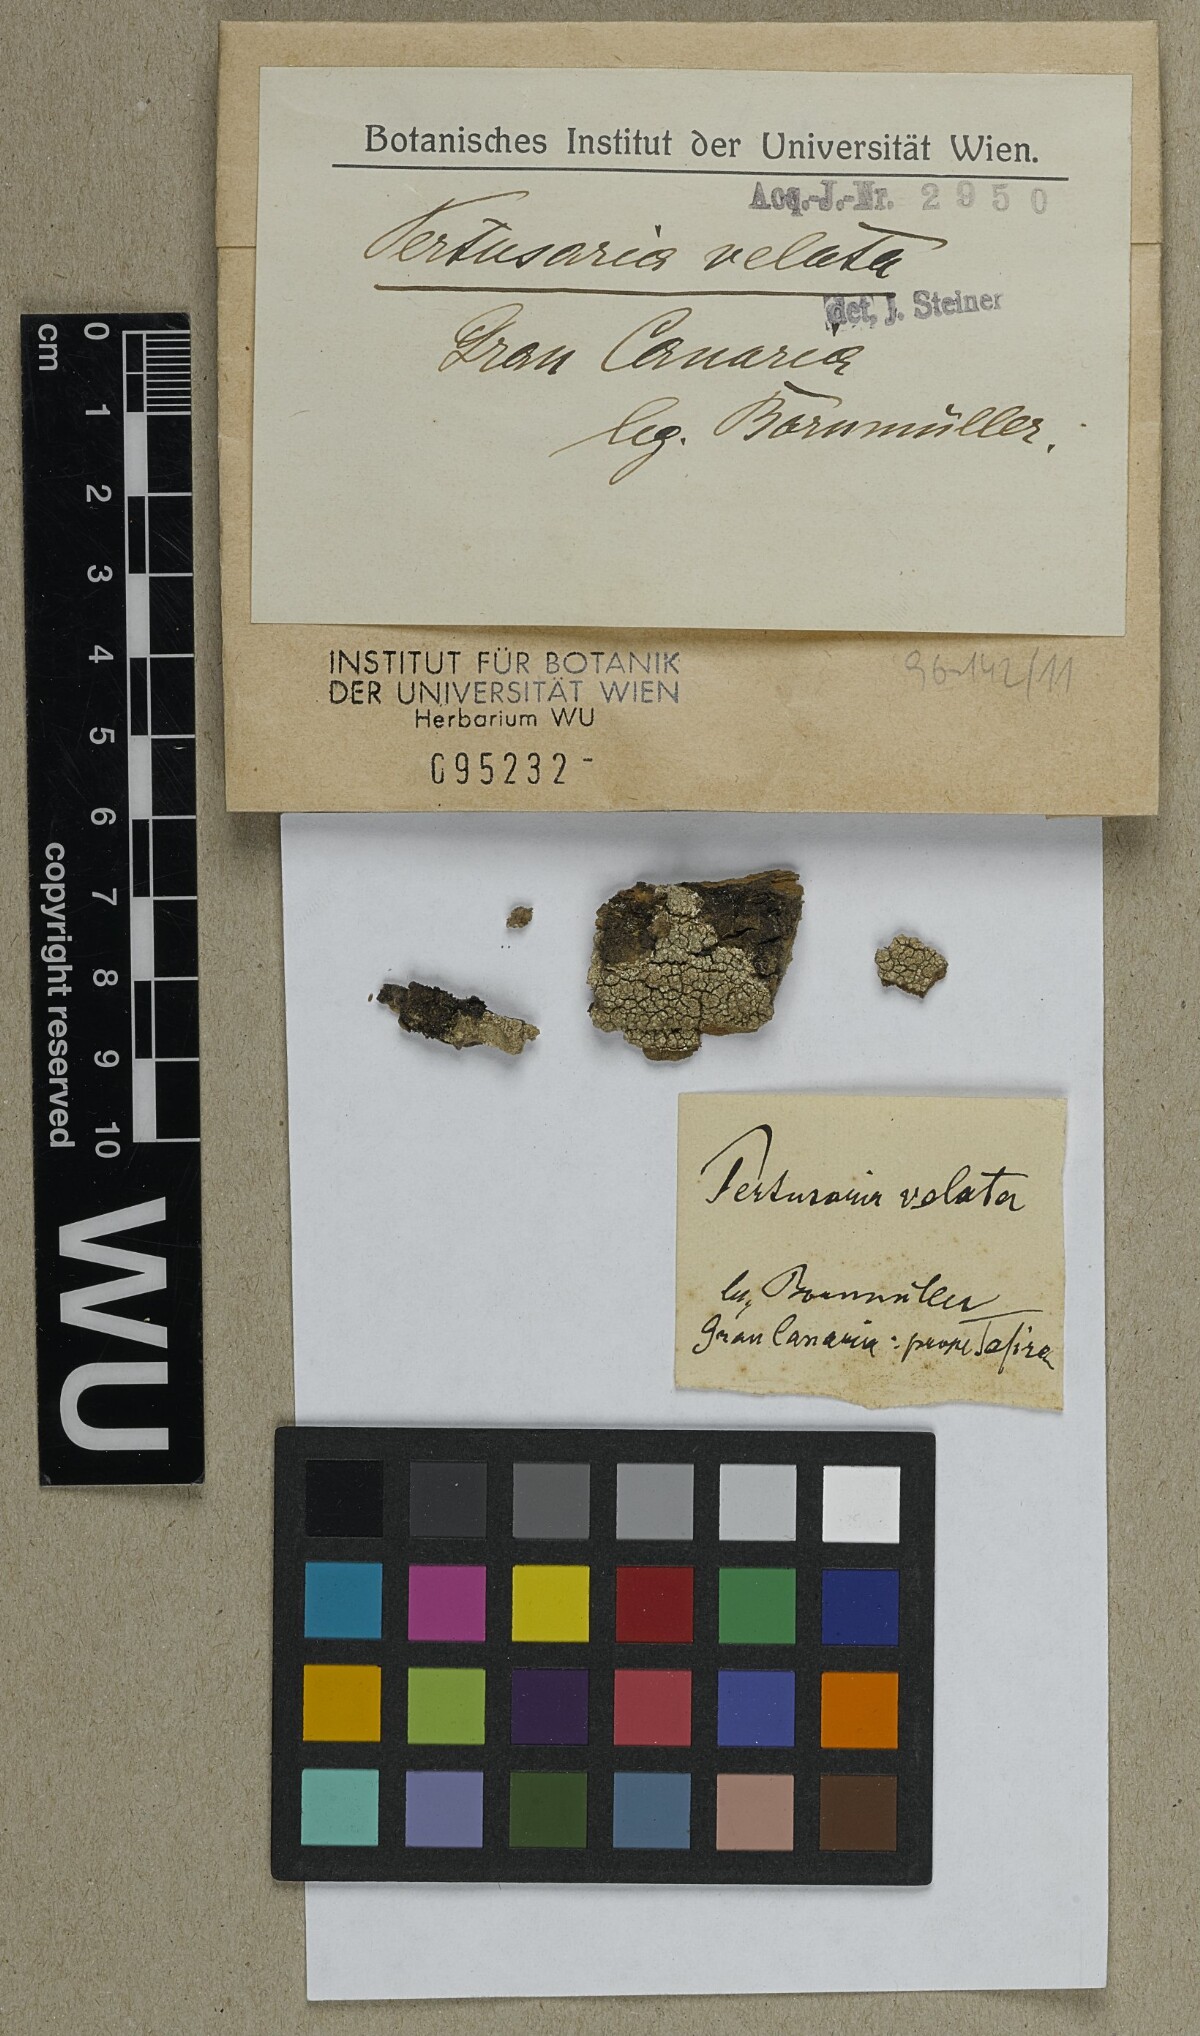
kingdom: Fungi
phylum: Ascomycota
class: Lecanoromycetes
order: Pertusariales
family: Varicellariaceae
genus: Varicellaria
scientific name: Varicellaria velata
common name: Rimmed wart lichen
